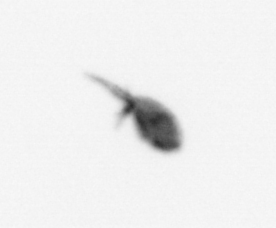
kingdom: Animalia
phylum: Arthropoda
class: Copepoda
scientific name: Copepoda
